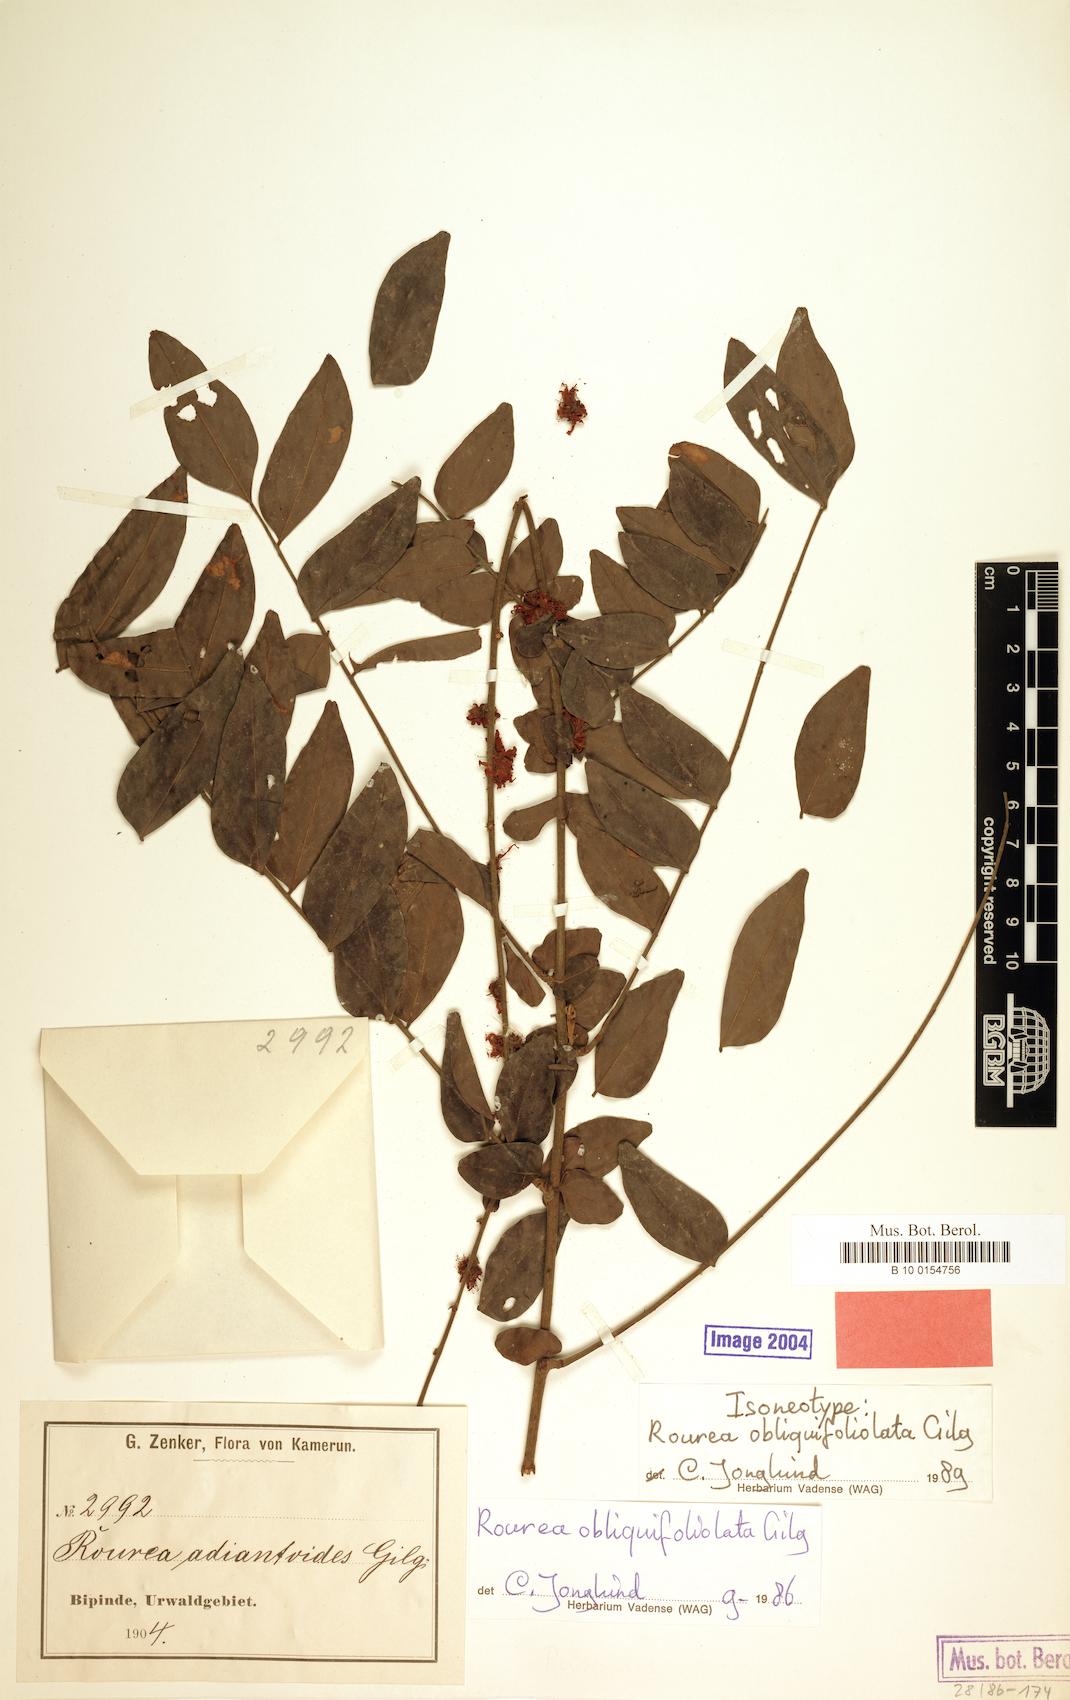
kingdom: Plantae
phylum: Tracheophyta
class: Magnoliopsida
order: Oxalidales
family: Connaraceae
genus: Rourea
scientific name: Rourea obliquifoliolata
